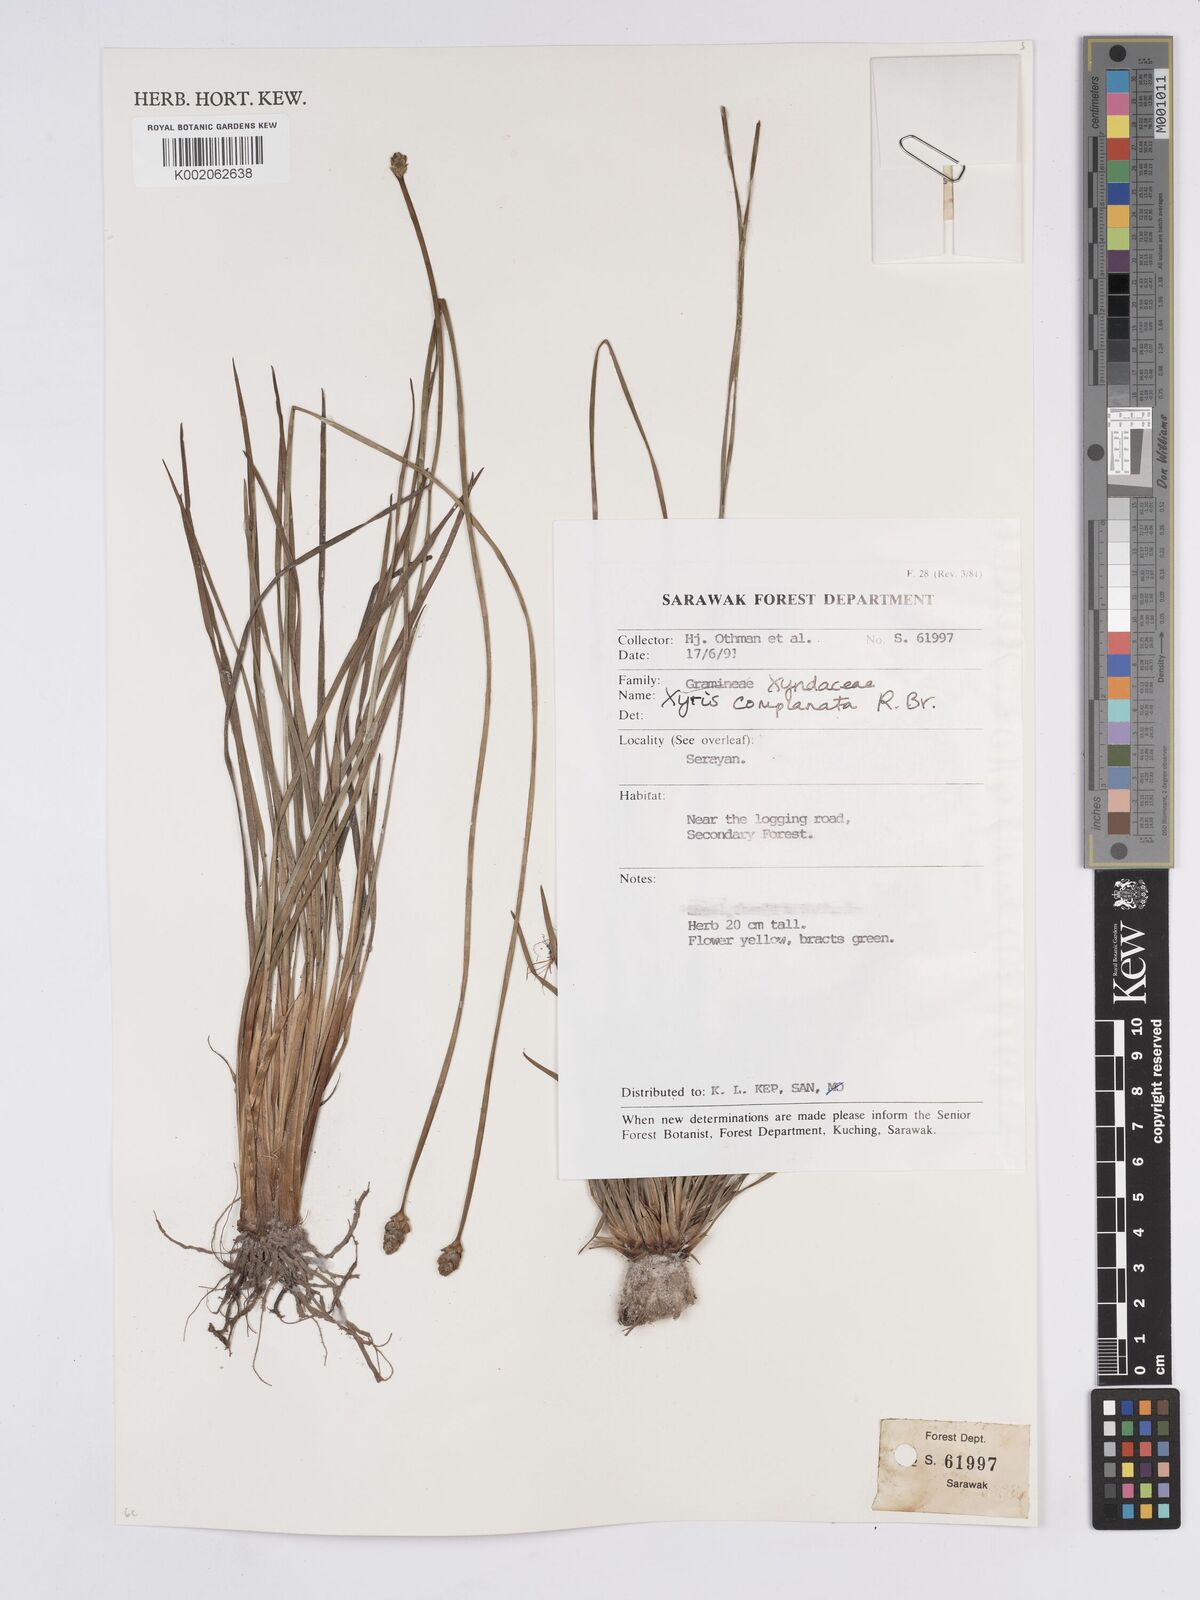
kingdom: Plantae
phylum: Tracheophyta
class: Liliopsida
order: Poales
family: Xyridaceae
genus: Xyris
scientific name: Xyris complanata
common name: Hawai'i yelloweyed grass
